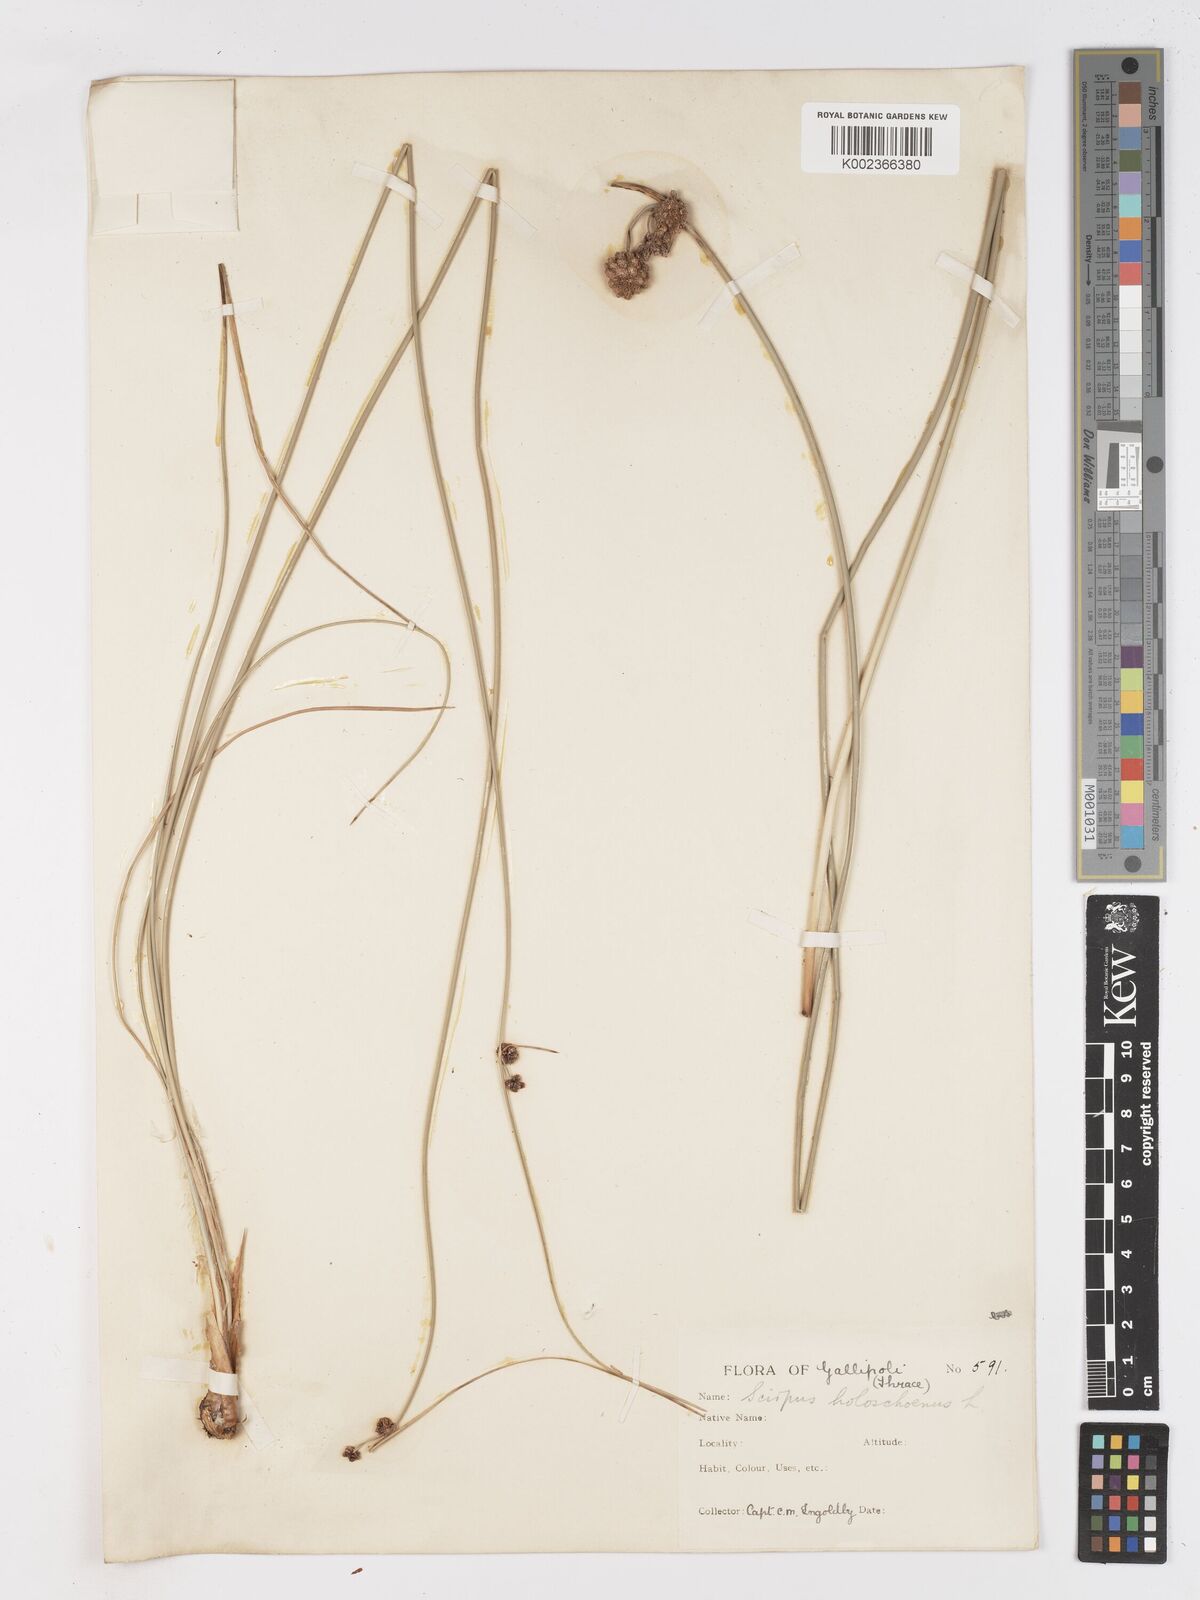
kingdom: Plantae
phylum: Tracheophyta
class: Liliopsida
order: Poales
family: Cyperaceae
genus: Scirpoides
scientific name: Scirpoides holoschoenus
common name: Round-headed club-rush
